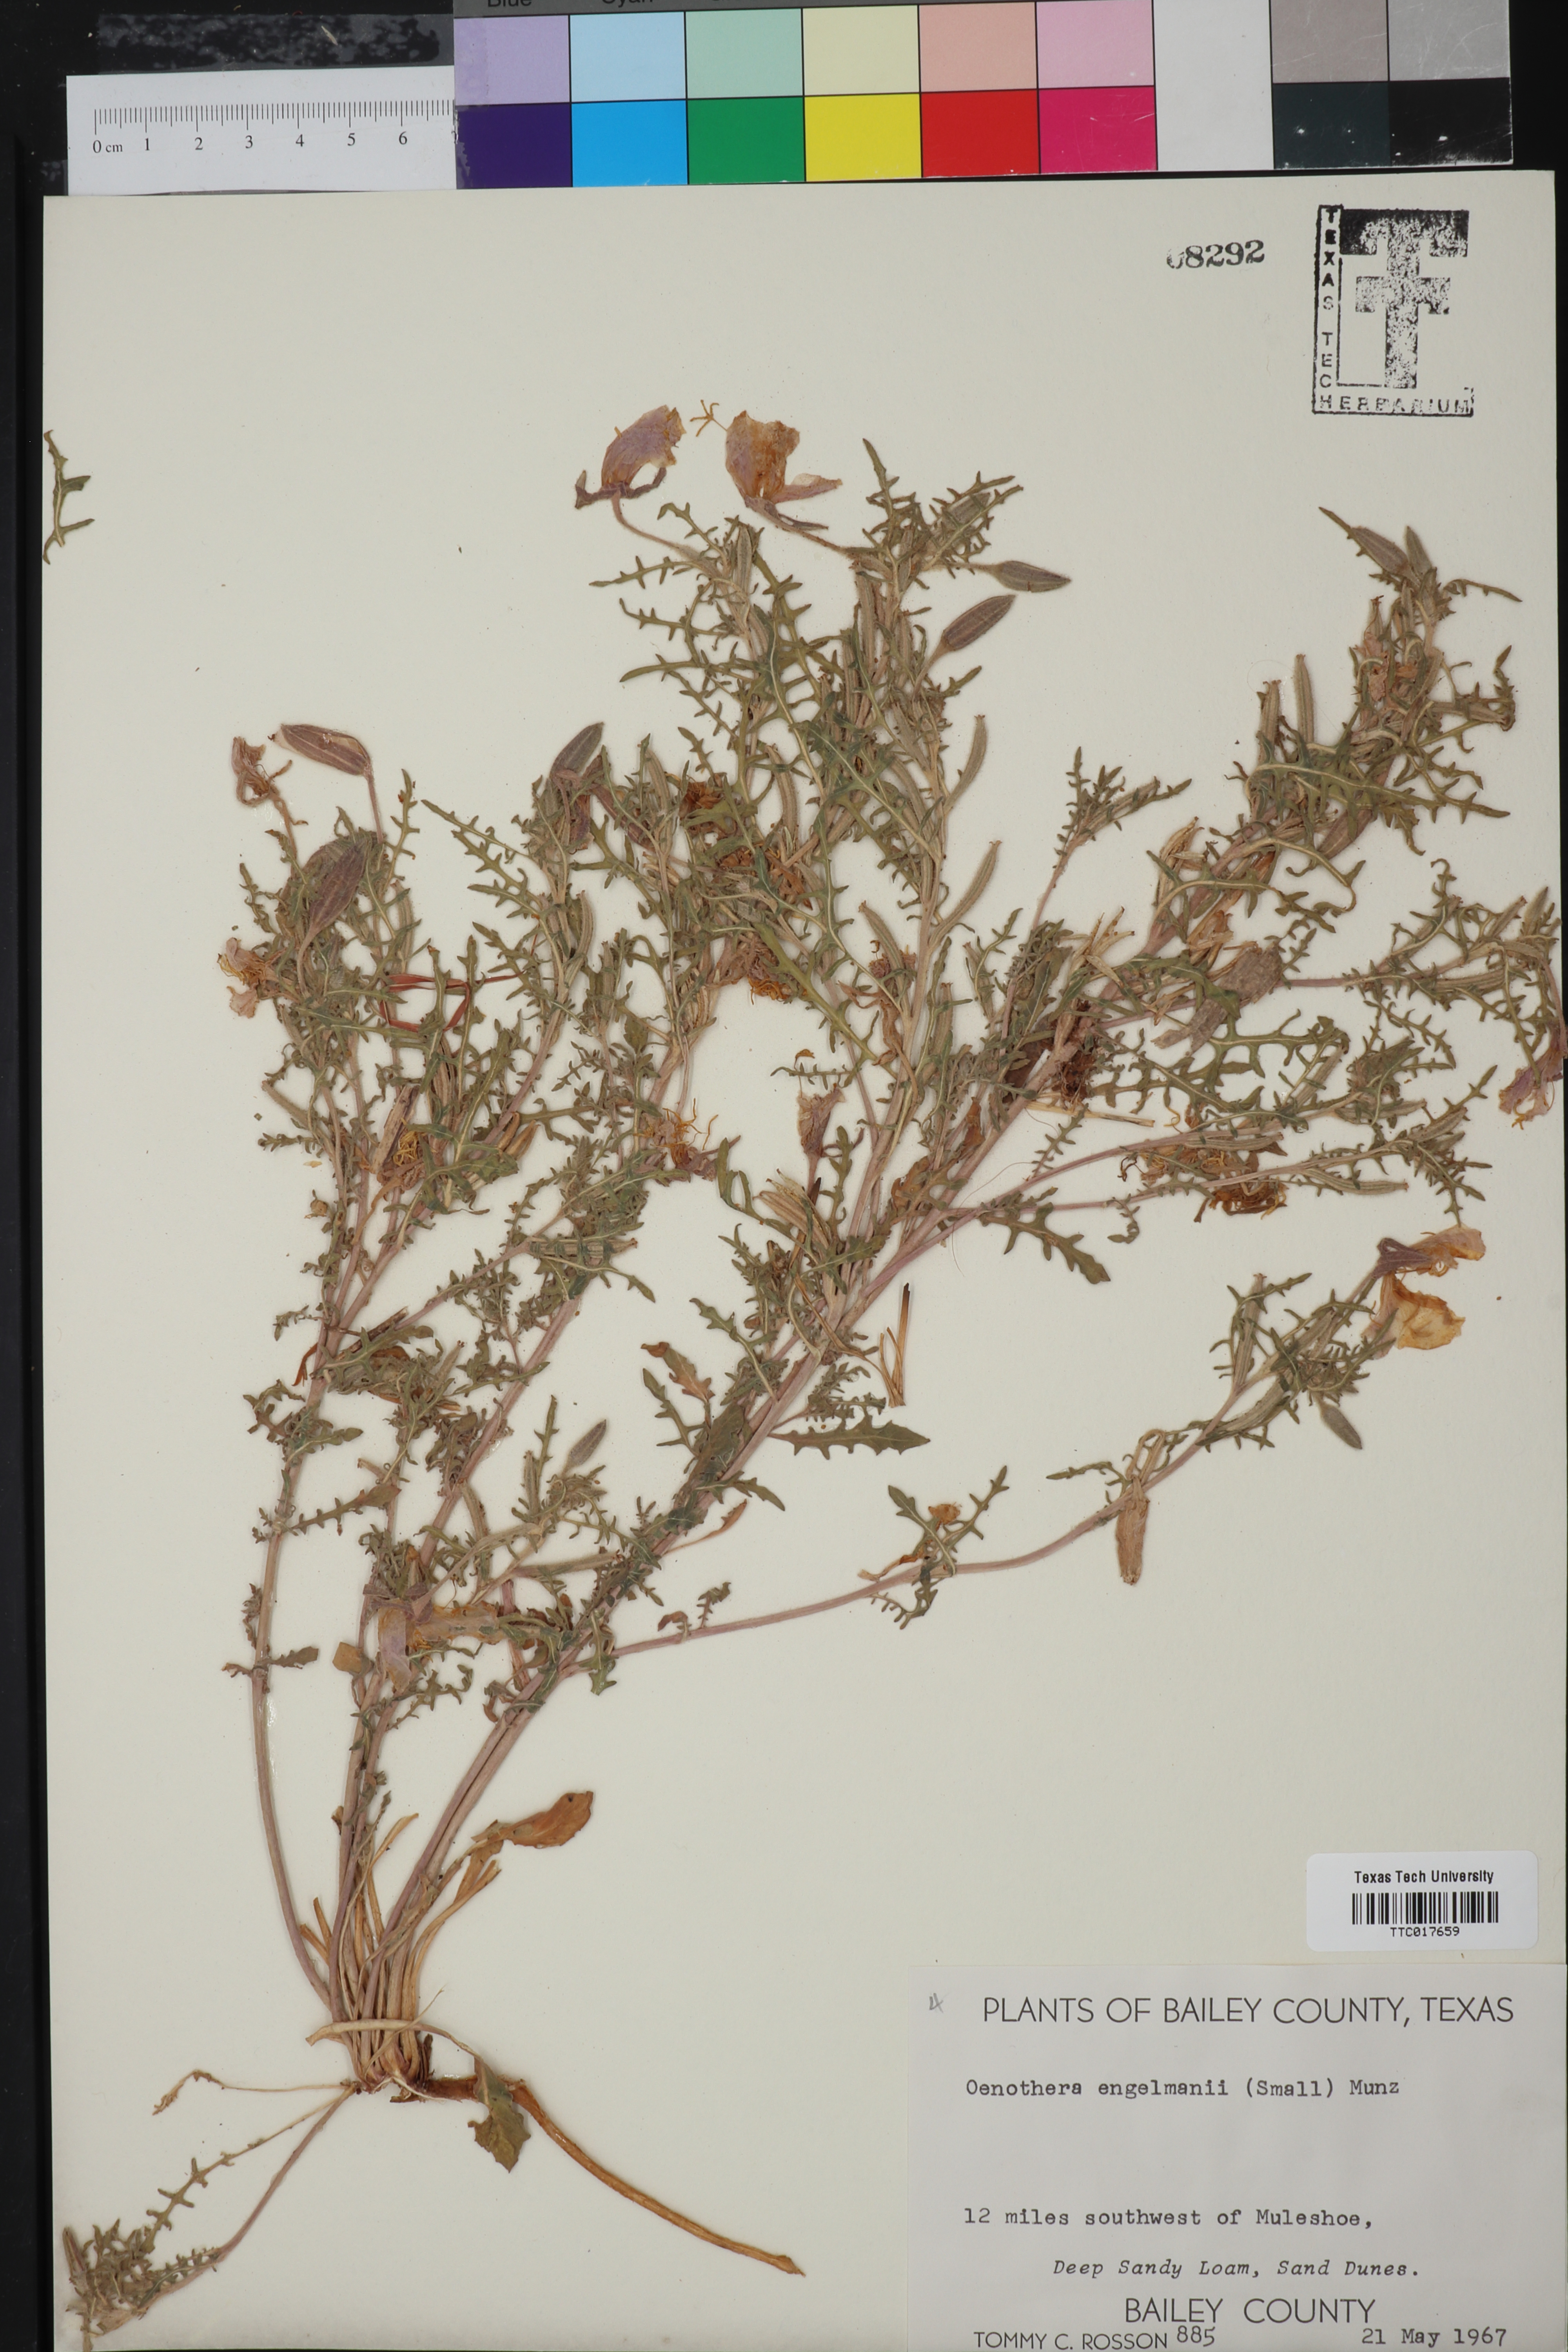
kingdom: Plantae
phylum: Tracheophyta
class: Magnoliopsida
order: Myrtales
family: Onagraceae
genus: Oenothera
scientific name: Oenothera engelmannii
